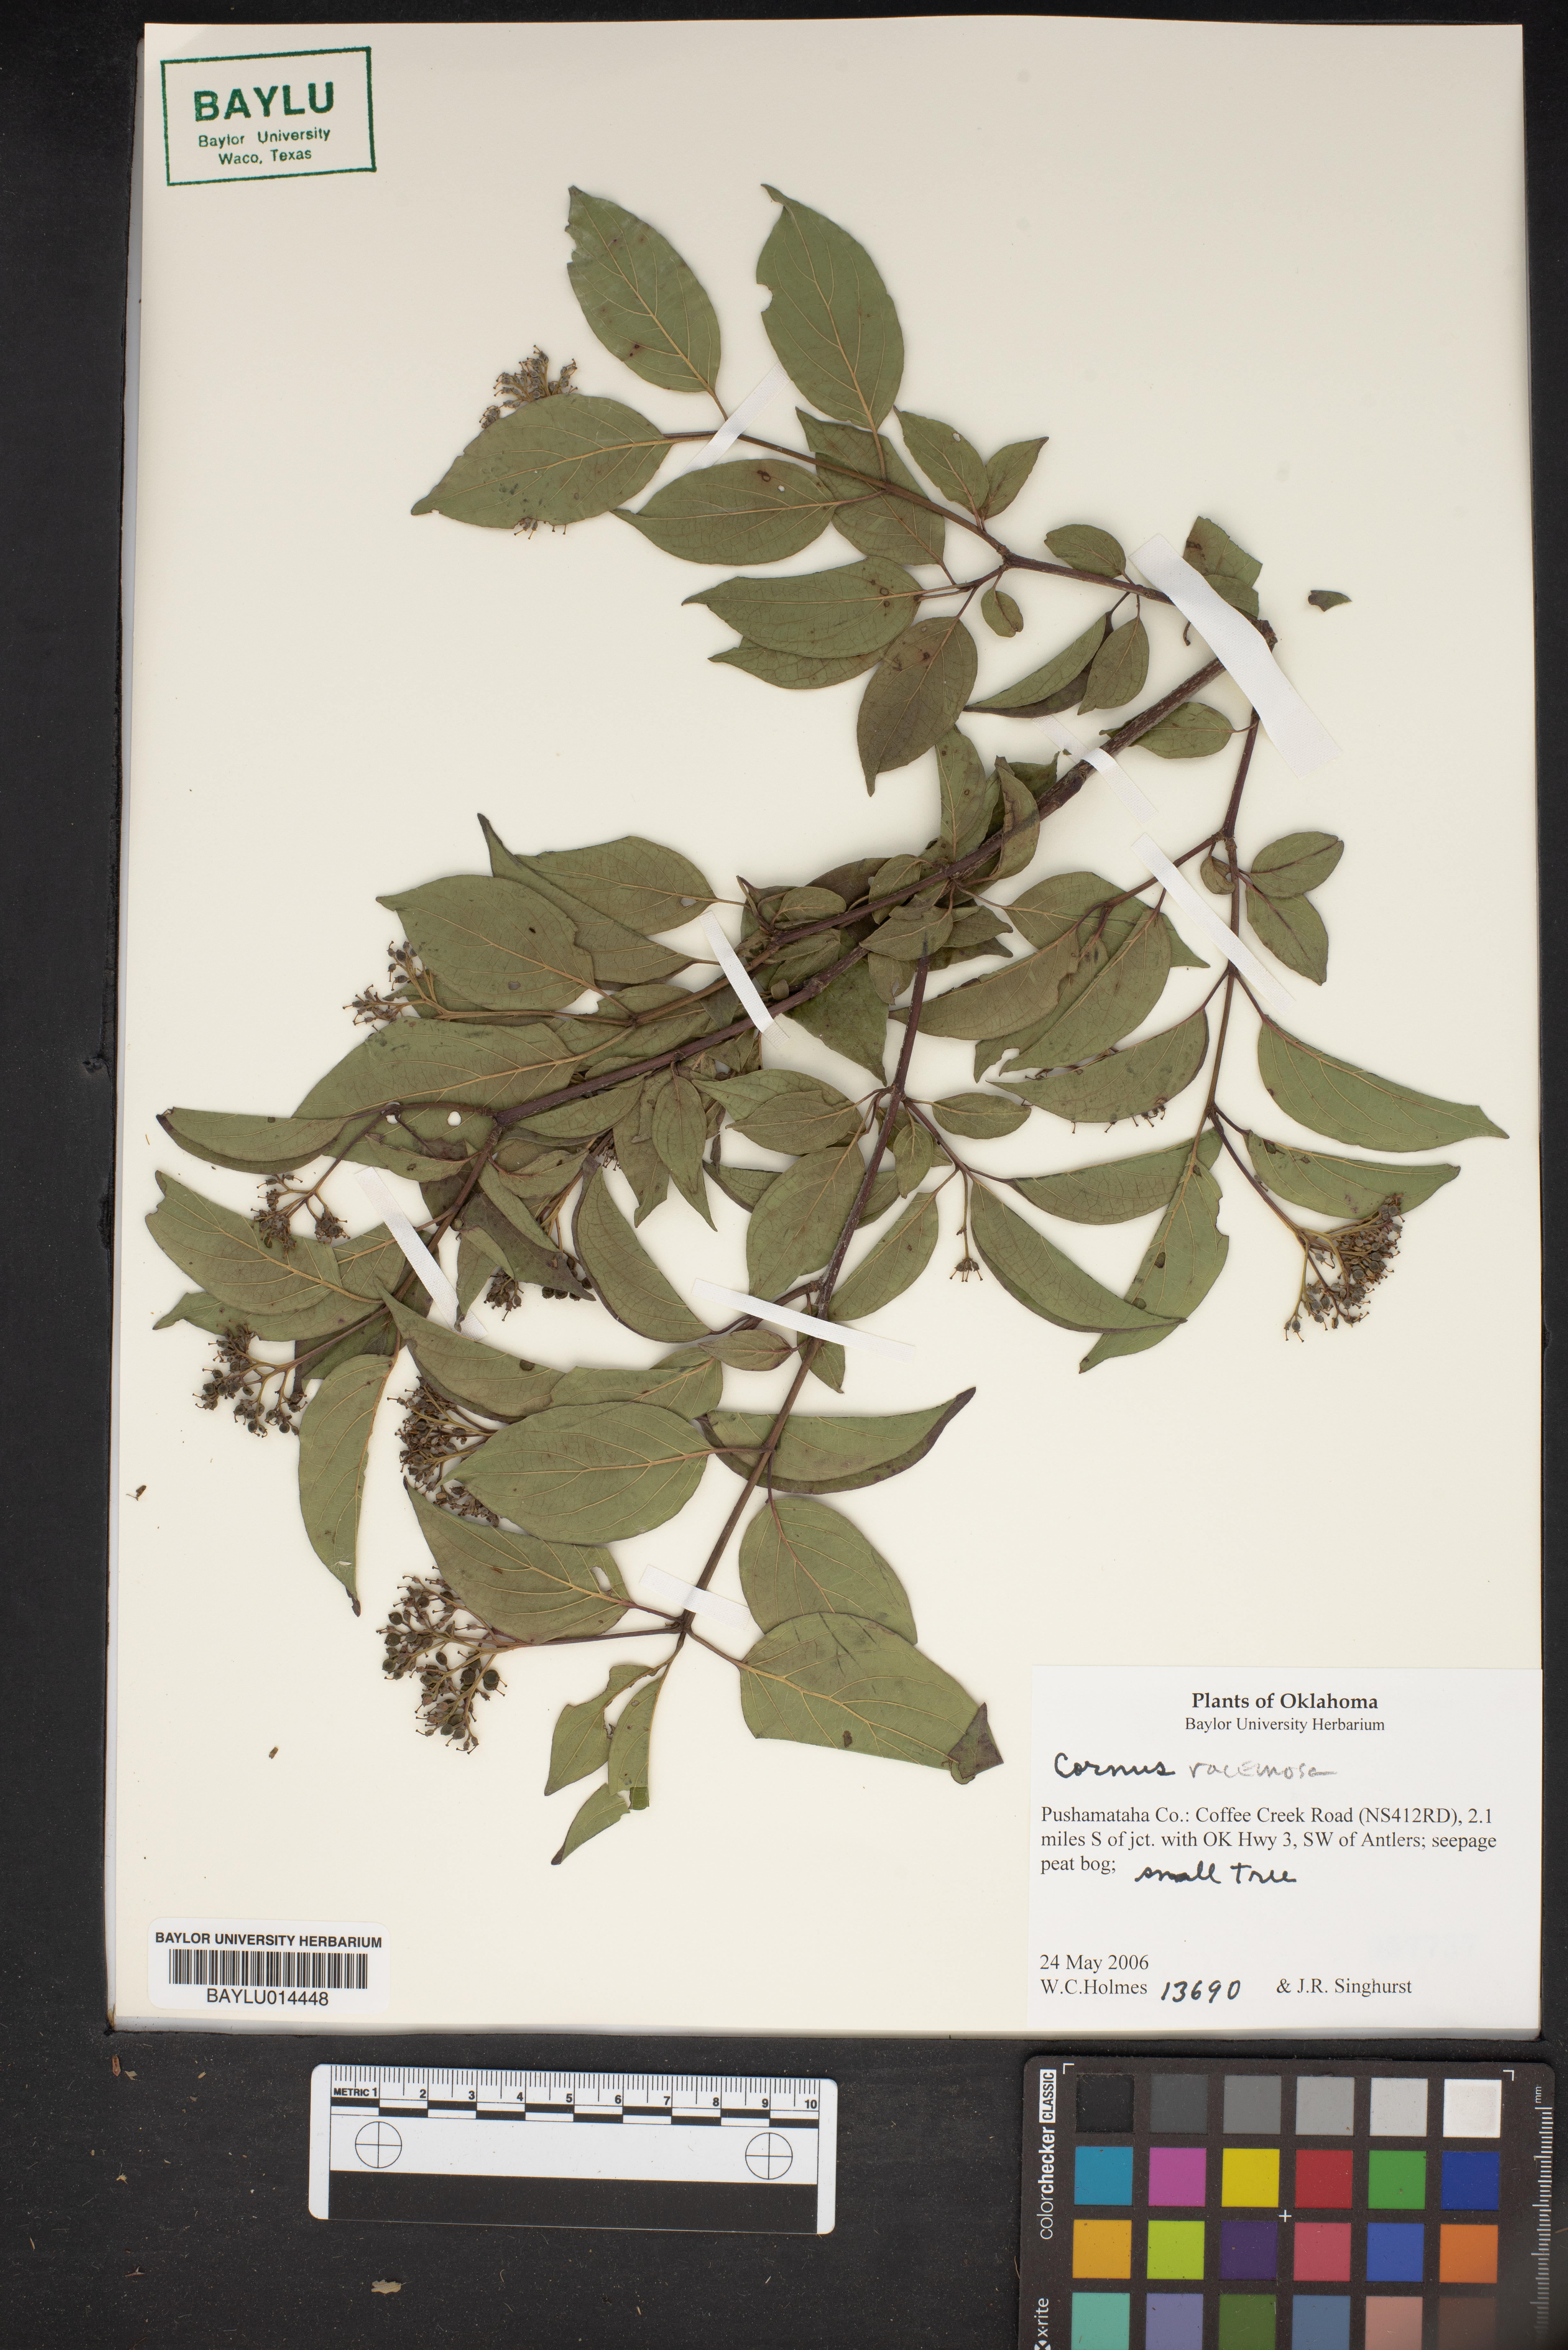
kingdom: Plantae
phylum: Tracheophyta
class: Magnoliopsida
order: Cornales
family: Cornaceae
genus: Cornus
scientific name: Cornus racemosa
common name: Panicled dogwood
